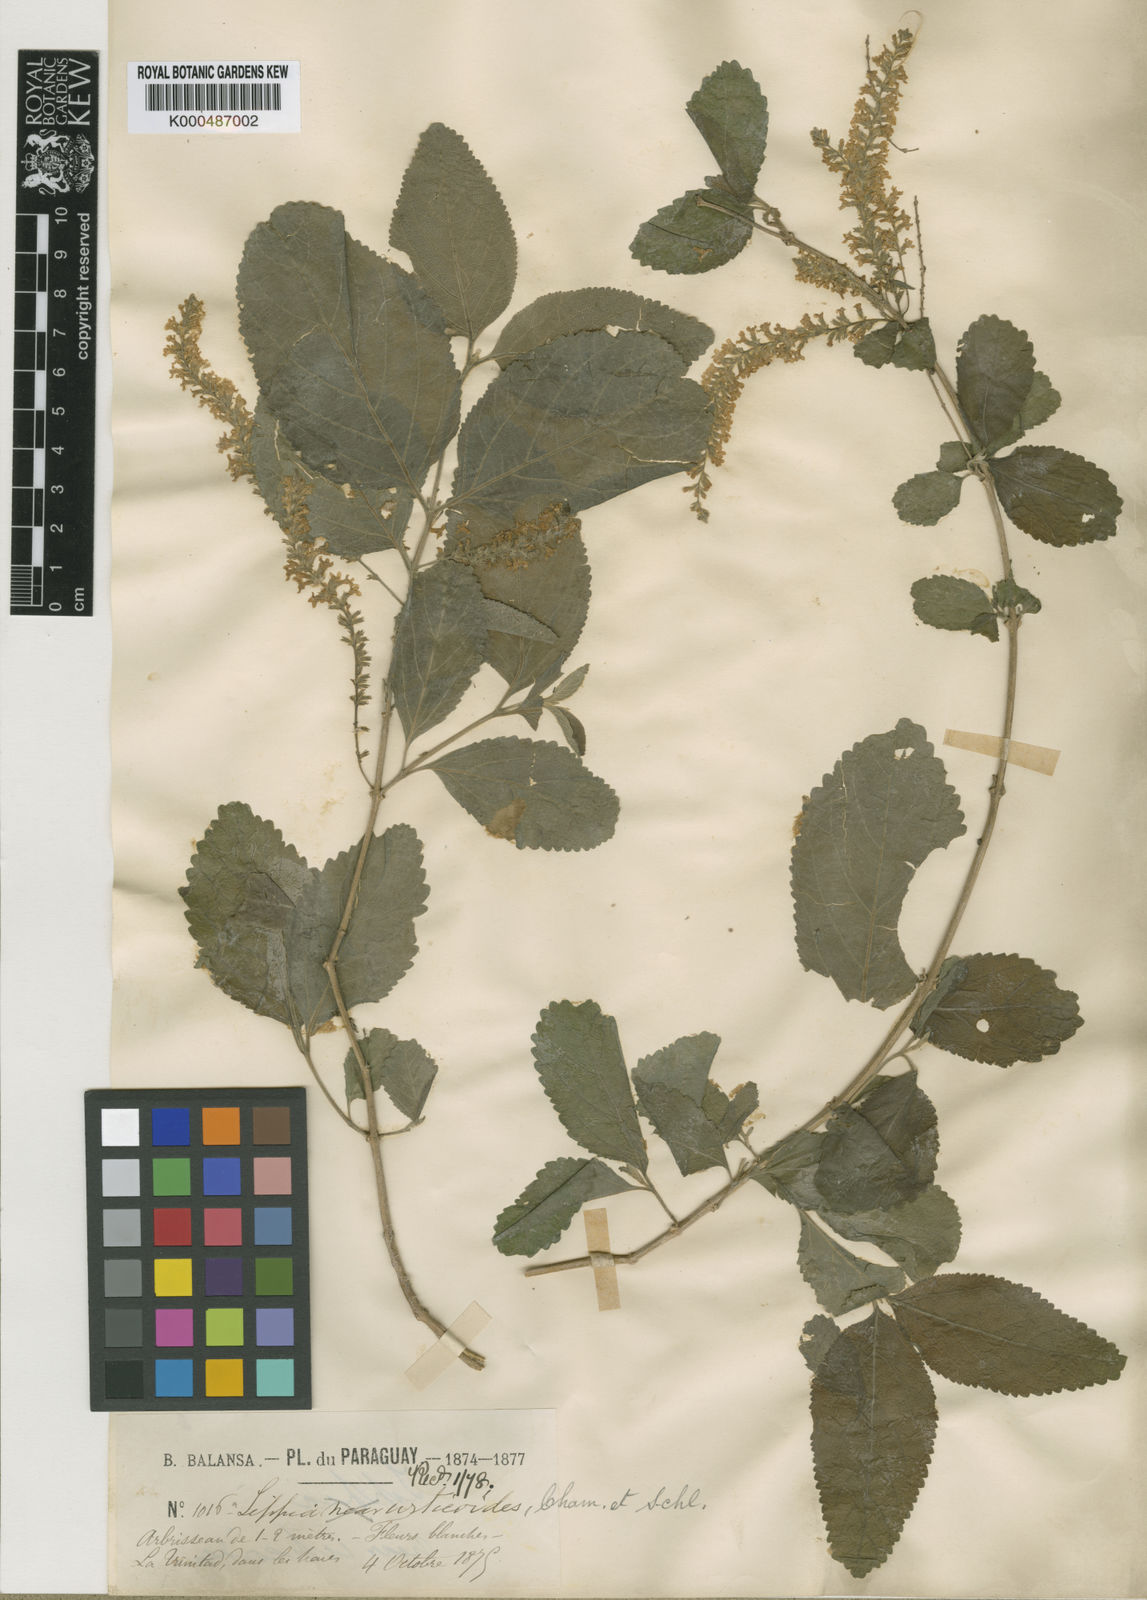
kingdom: Plantae
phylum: Tracheophyta
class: Magnoliopsida
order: Lamiales
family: Verbenaceae
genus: Aloysia
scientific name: Aloysia virgata
